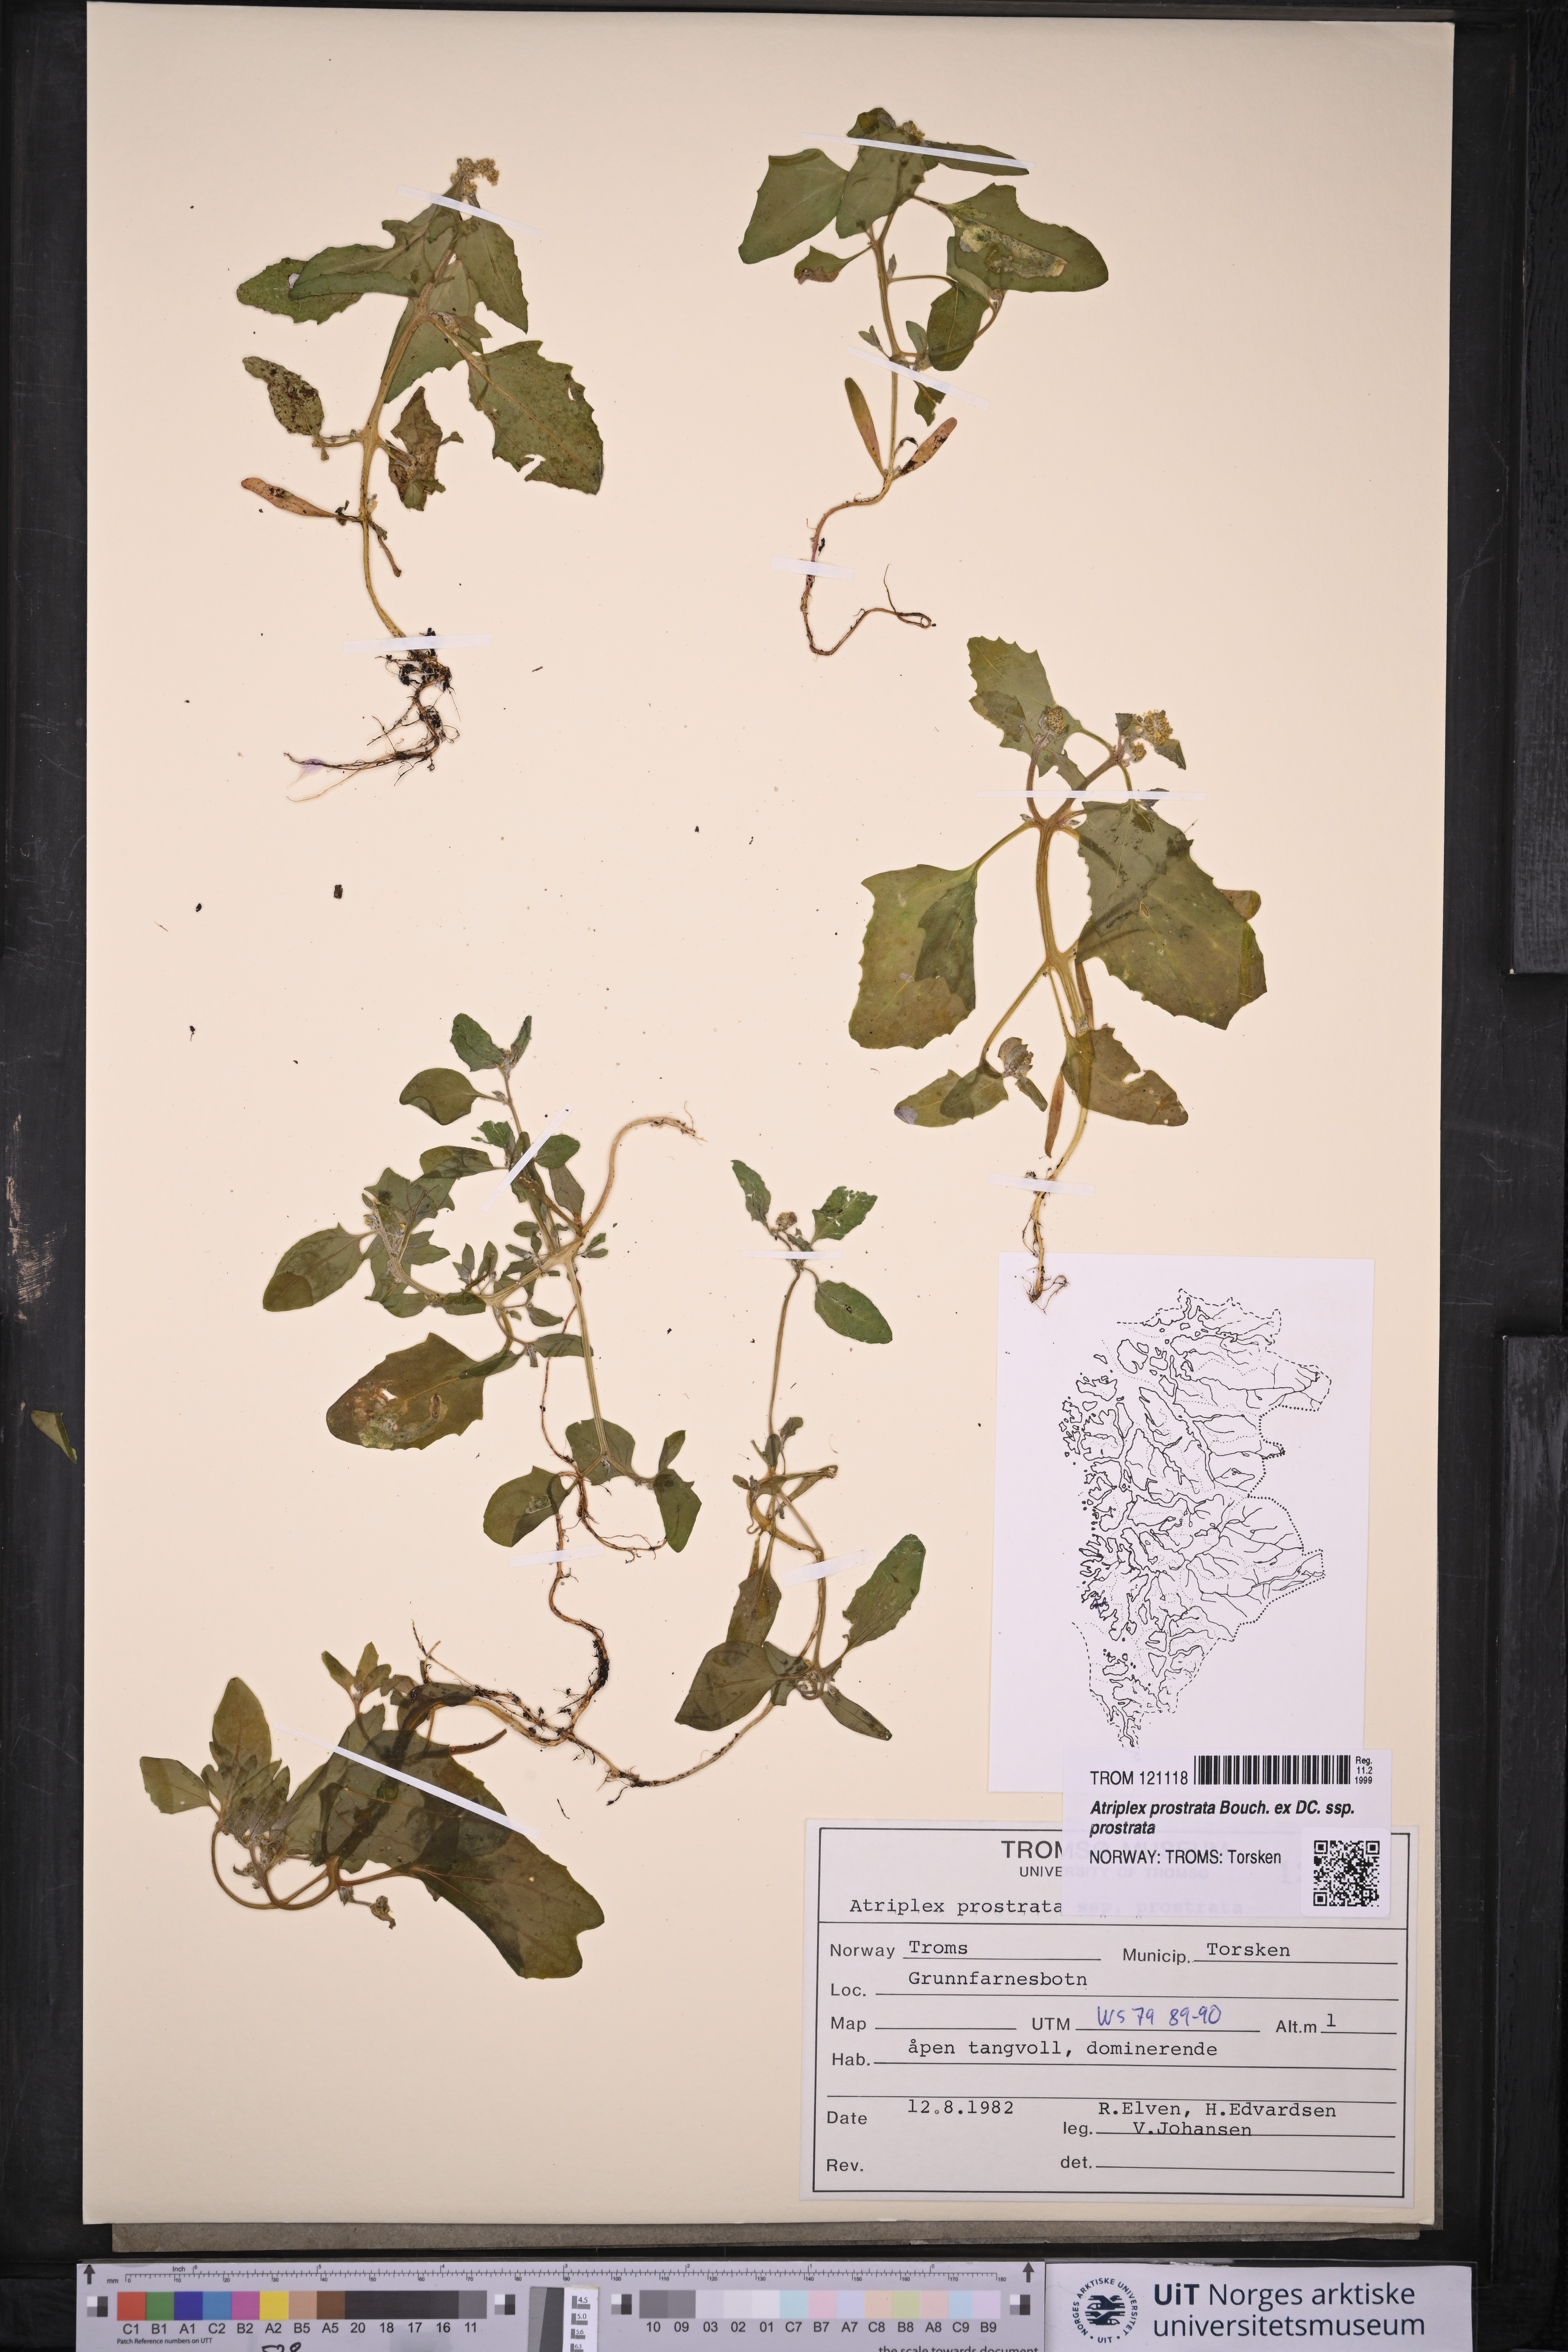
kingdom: Plantae
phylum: Tracheophyta
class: Magnoliopsida
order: Caryophyllales
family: Amaranthaceae
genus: Atriplex
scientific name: Atriplex prostrata
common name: Spear-leaved orache
